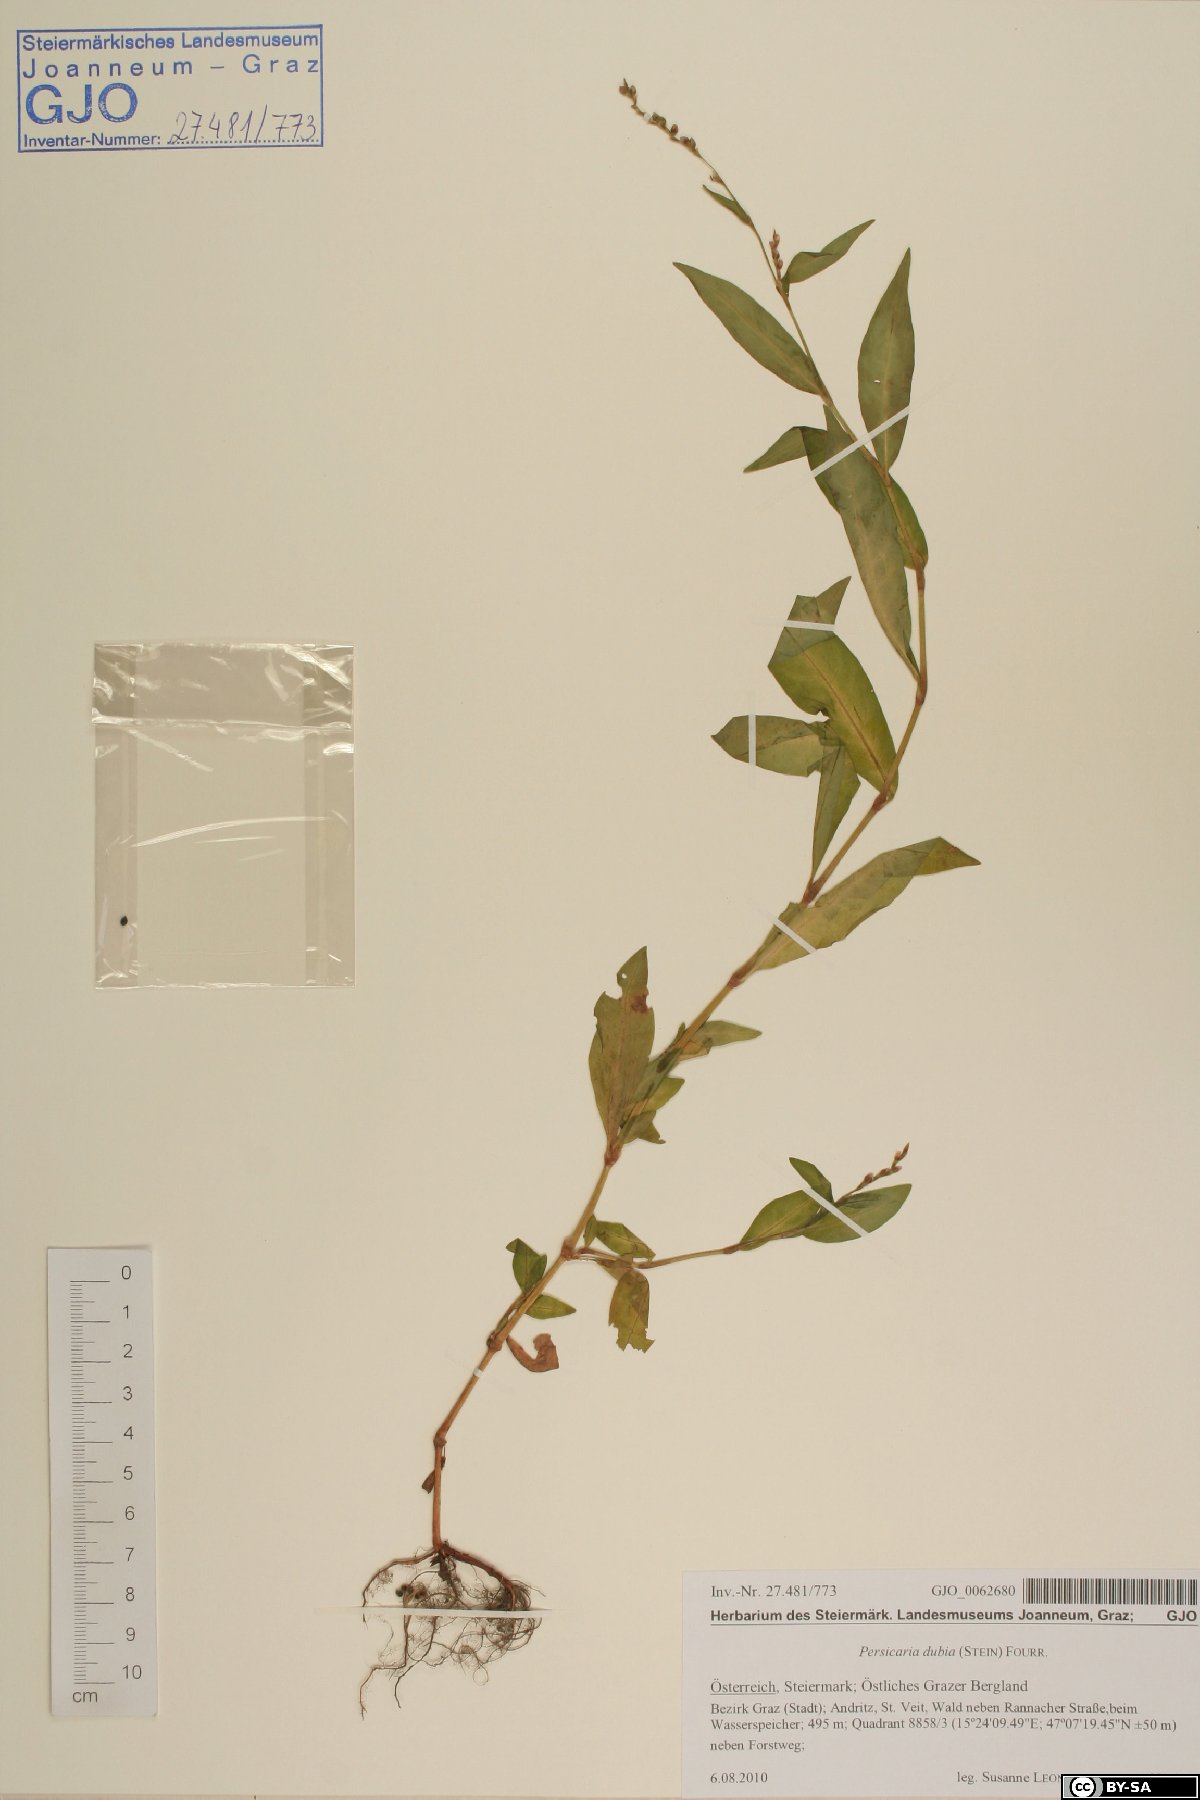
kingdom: Plantae
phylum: Tracheophyta
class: Magnoliopsida
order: Caryophyllales
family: Polygonaceae
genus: Persicaria
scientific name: Persicaria mitis
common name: Tasteless water-pepper
